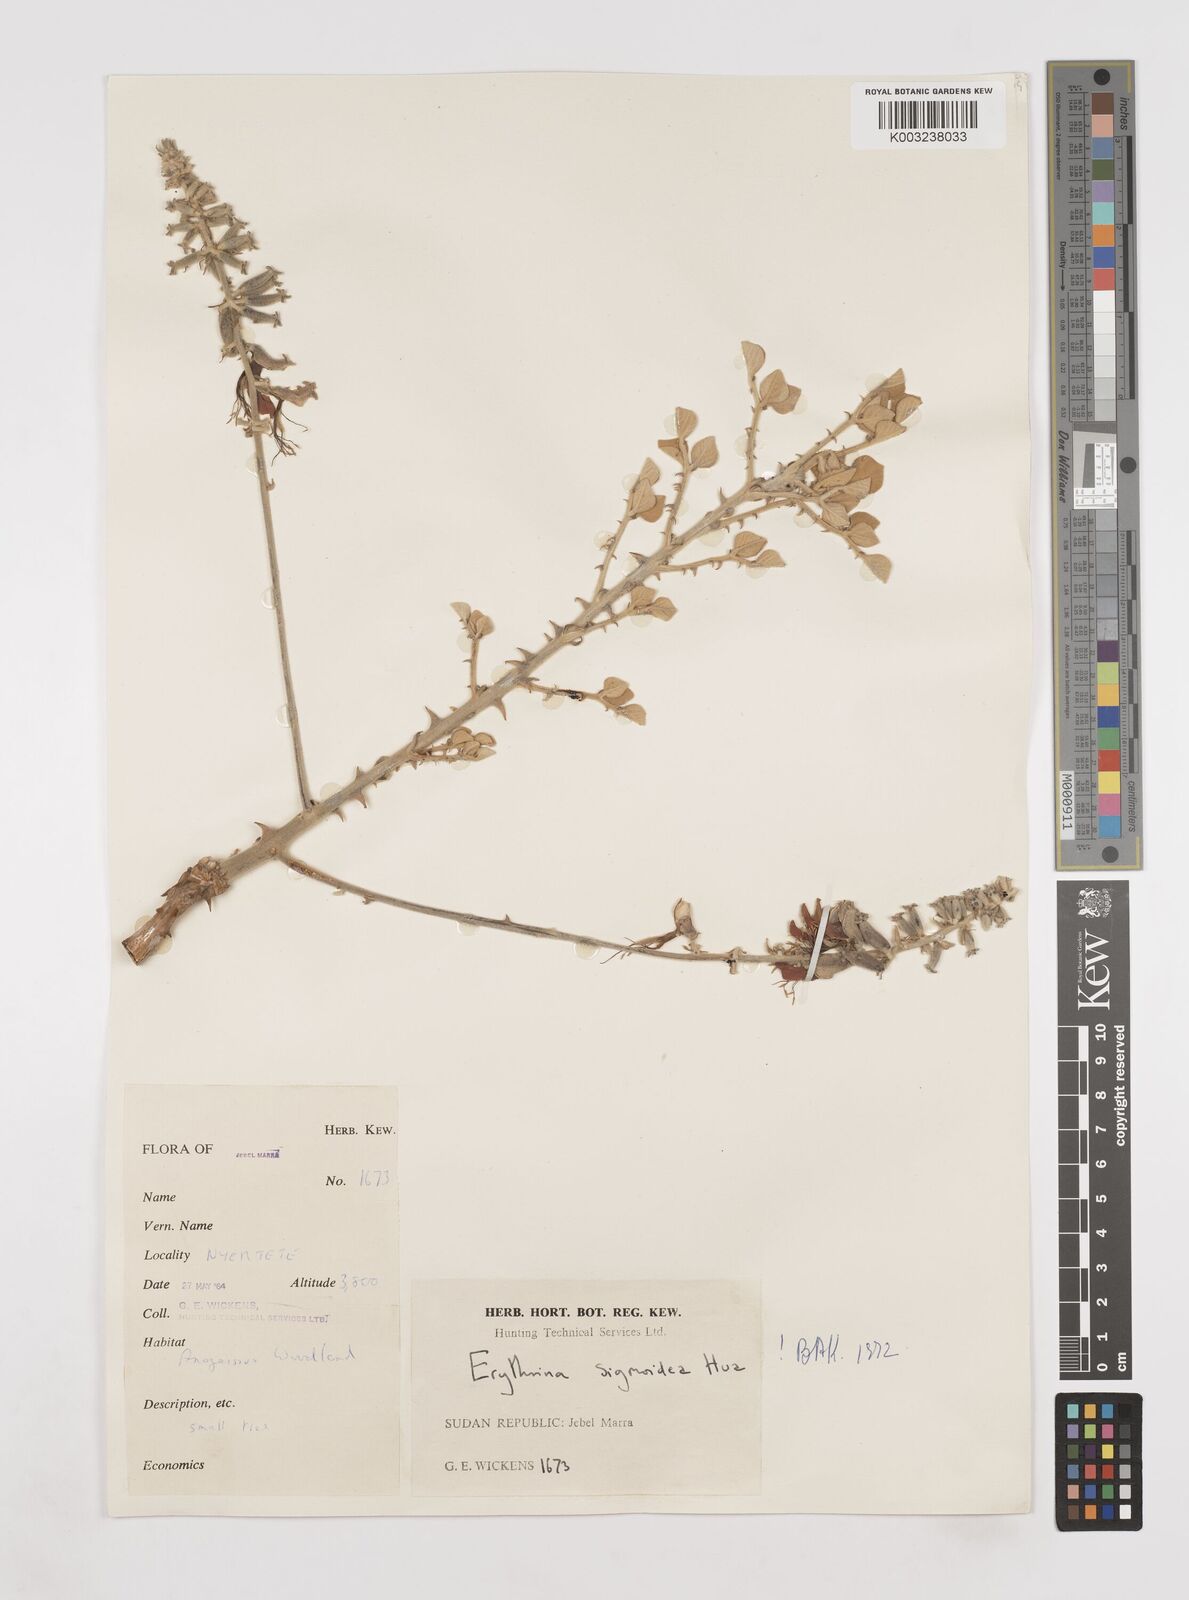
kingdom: Plantae
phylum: Tracheophyta
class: Magnoliopsida
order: Fabales
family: Fabaceae
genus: Erythrina
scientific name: Erythrina sigmoidea
